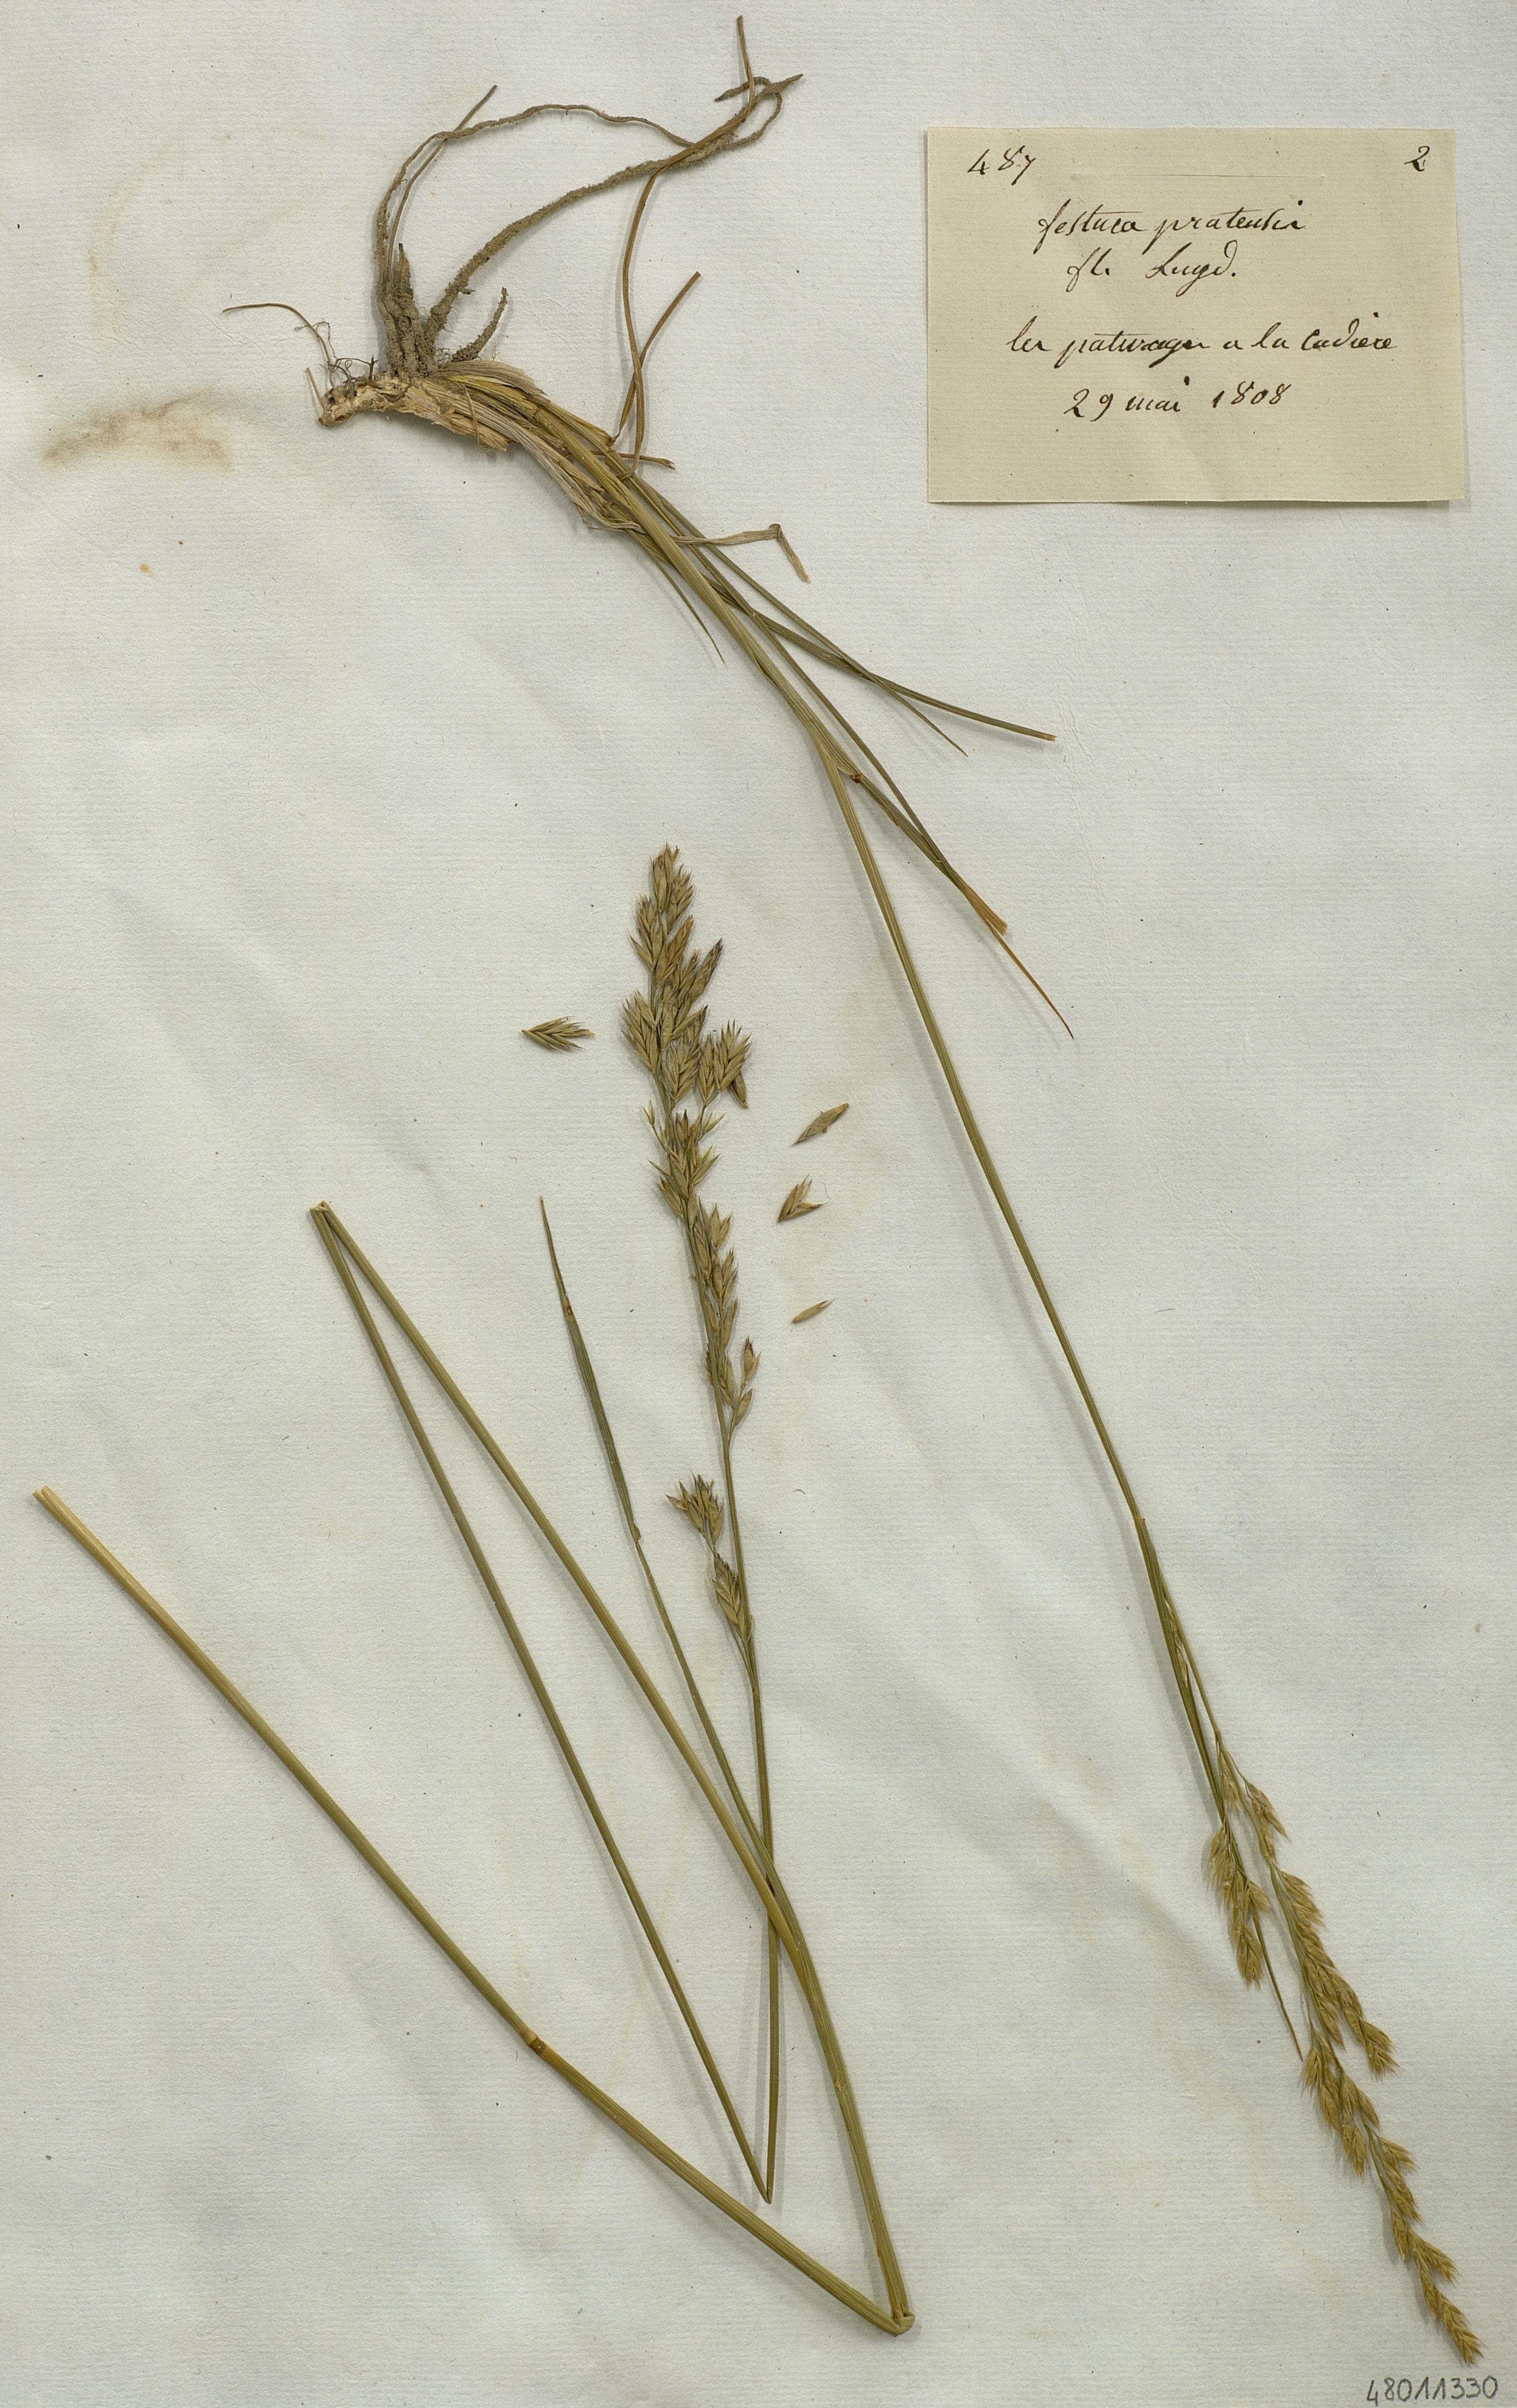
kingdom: Plantae
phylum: Tracheophyta
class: Liliopsida
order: Poales
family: Poaceae
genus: Festuca
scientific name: Festuca
